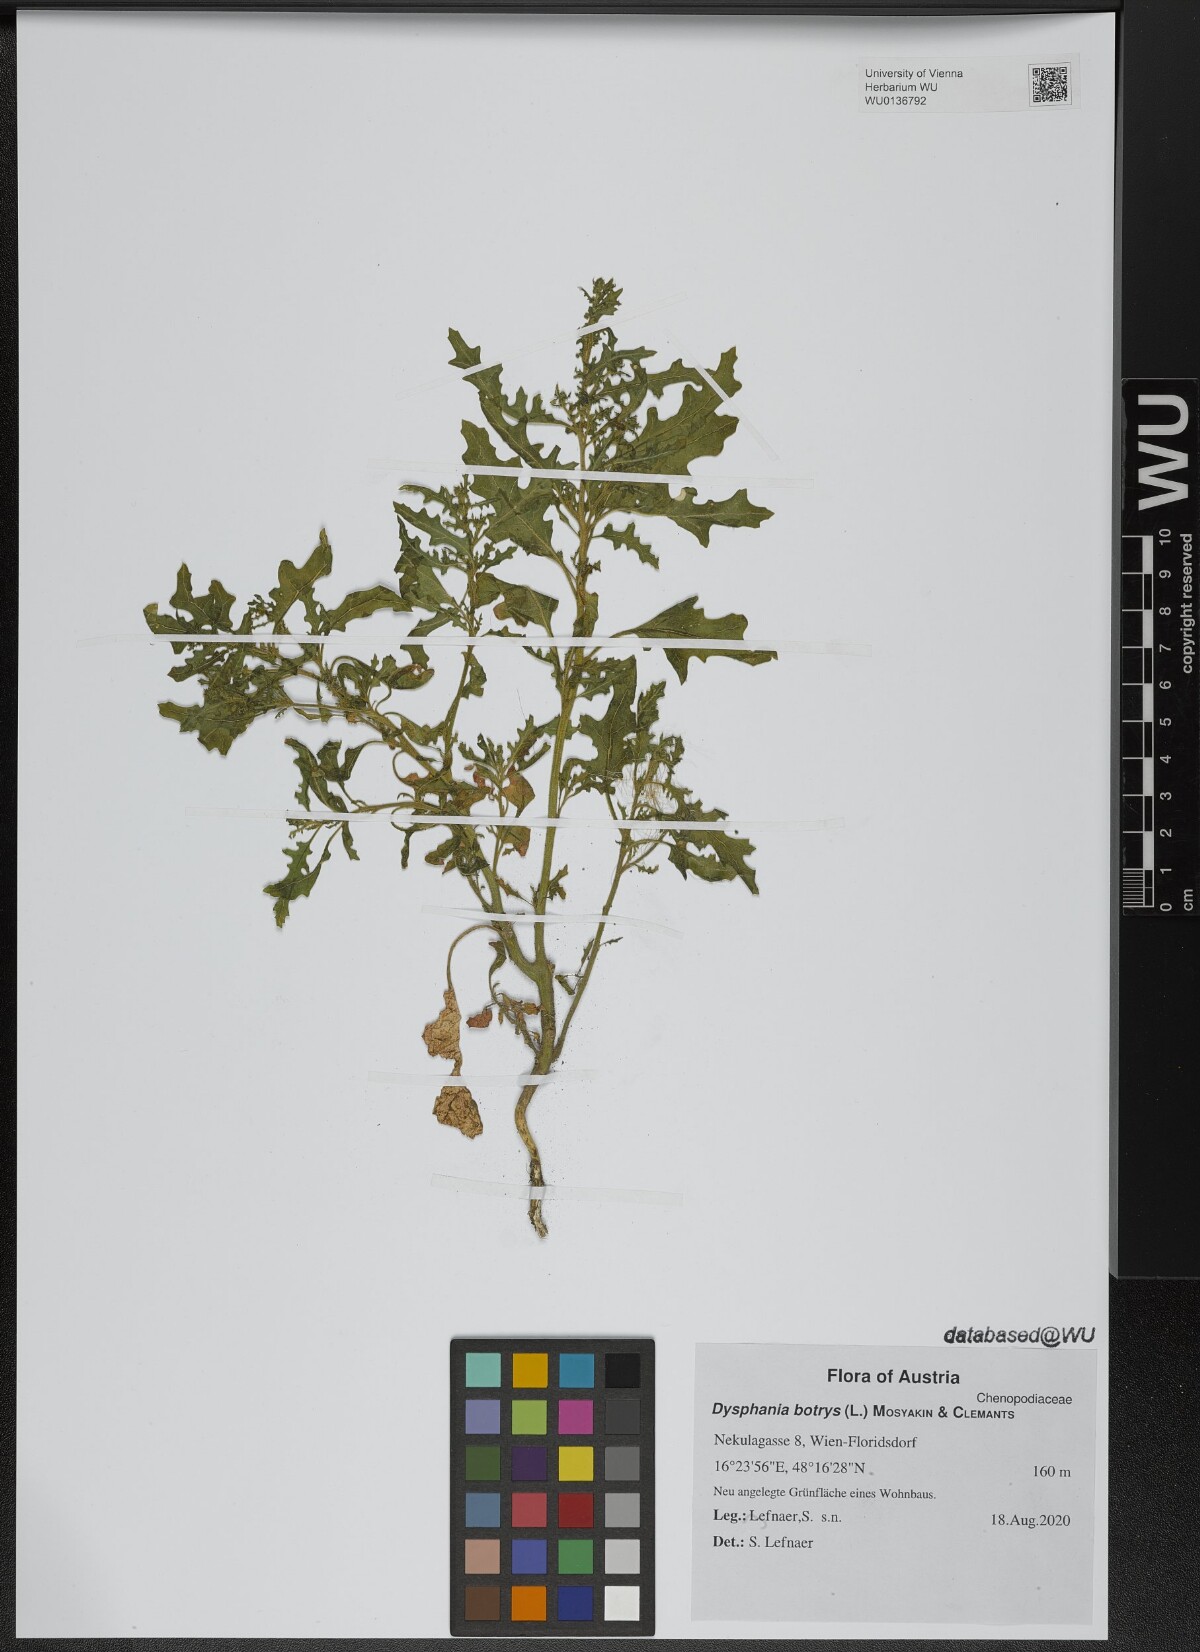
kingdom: Plantae
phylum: Tracheophyta
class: Magnoliopsida
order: Caryophyllales
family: Amaranthaceae
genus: Dysphania
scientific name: Dysphania botrys
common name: Feather-geranium
